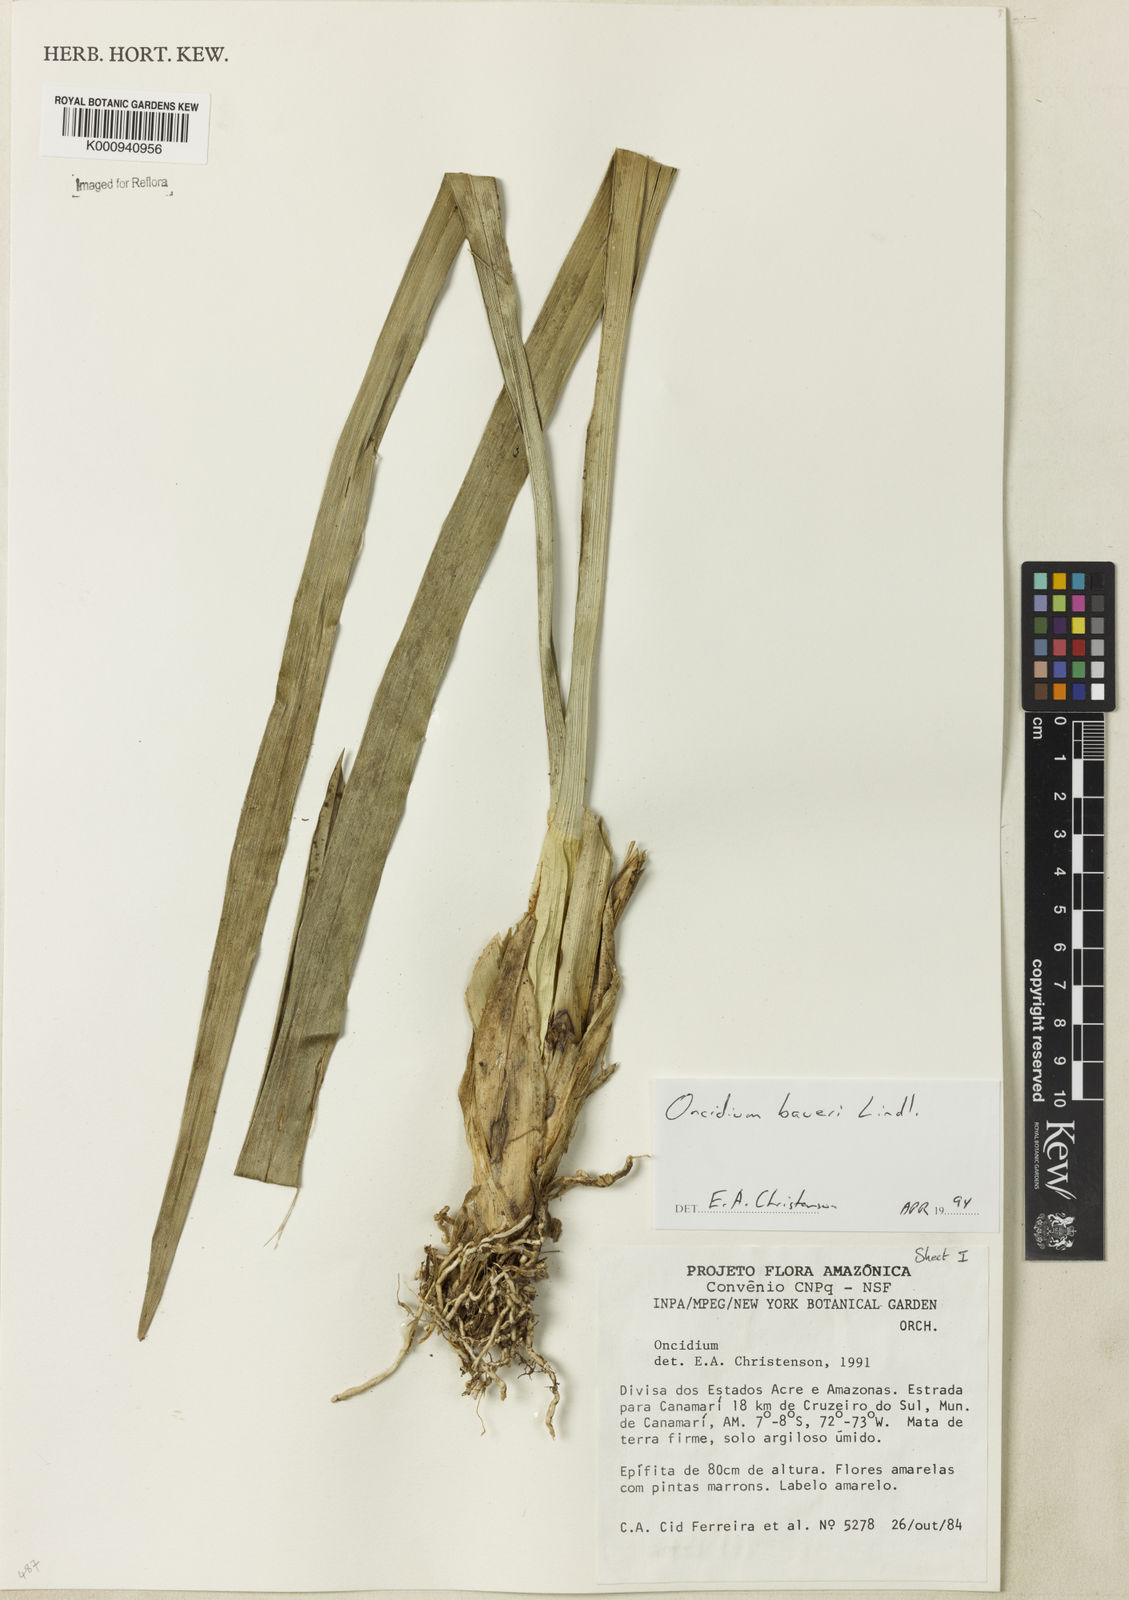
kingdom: Plantae
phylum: Tracheophyta
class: Liliopsida
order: Asparagales
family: Orchidaceae
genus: Oncidium
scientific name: Oncidium baueri
